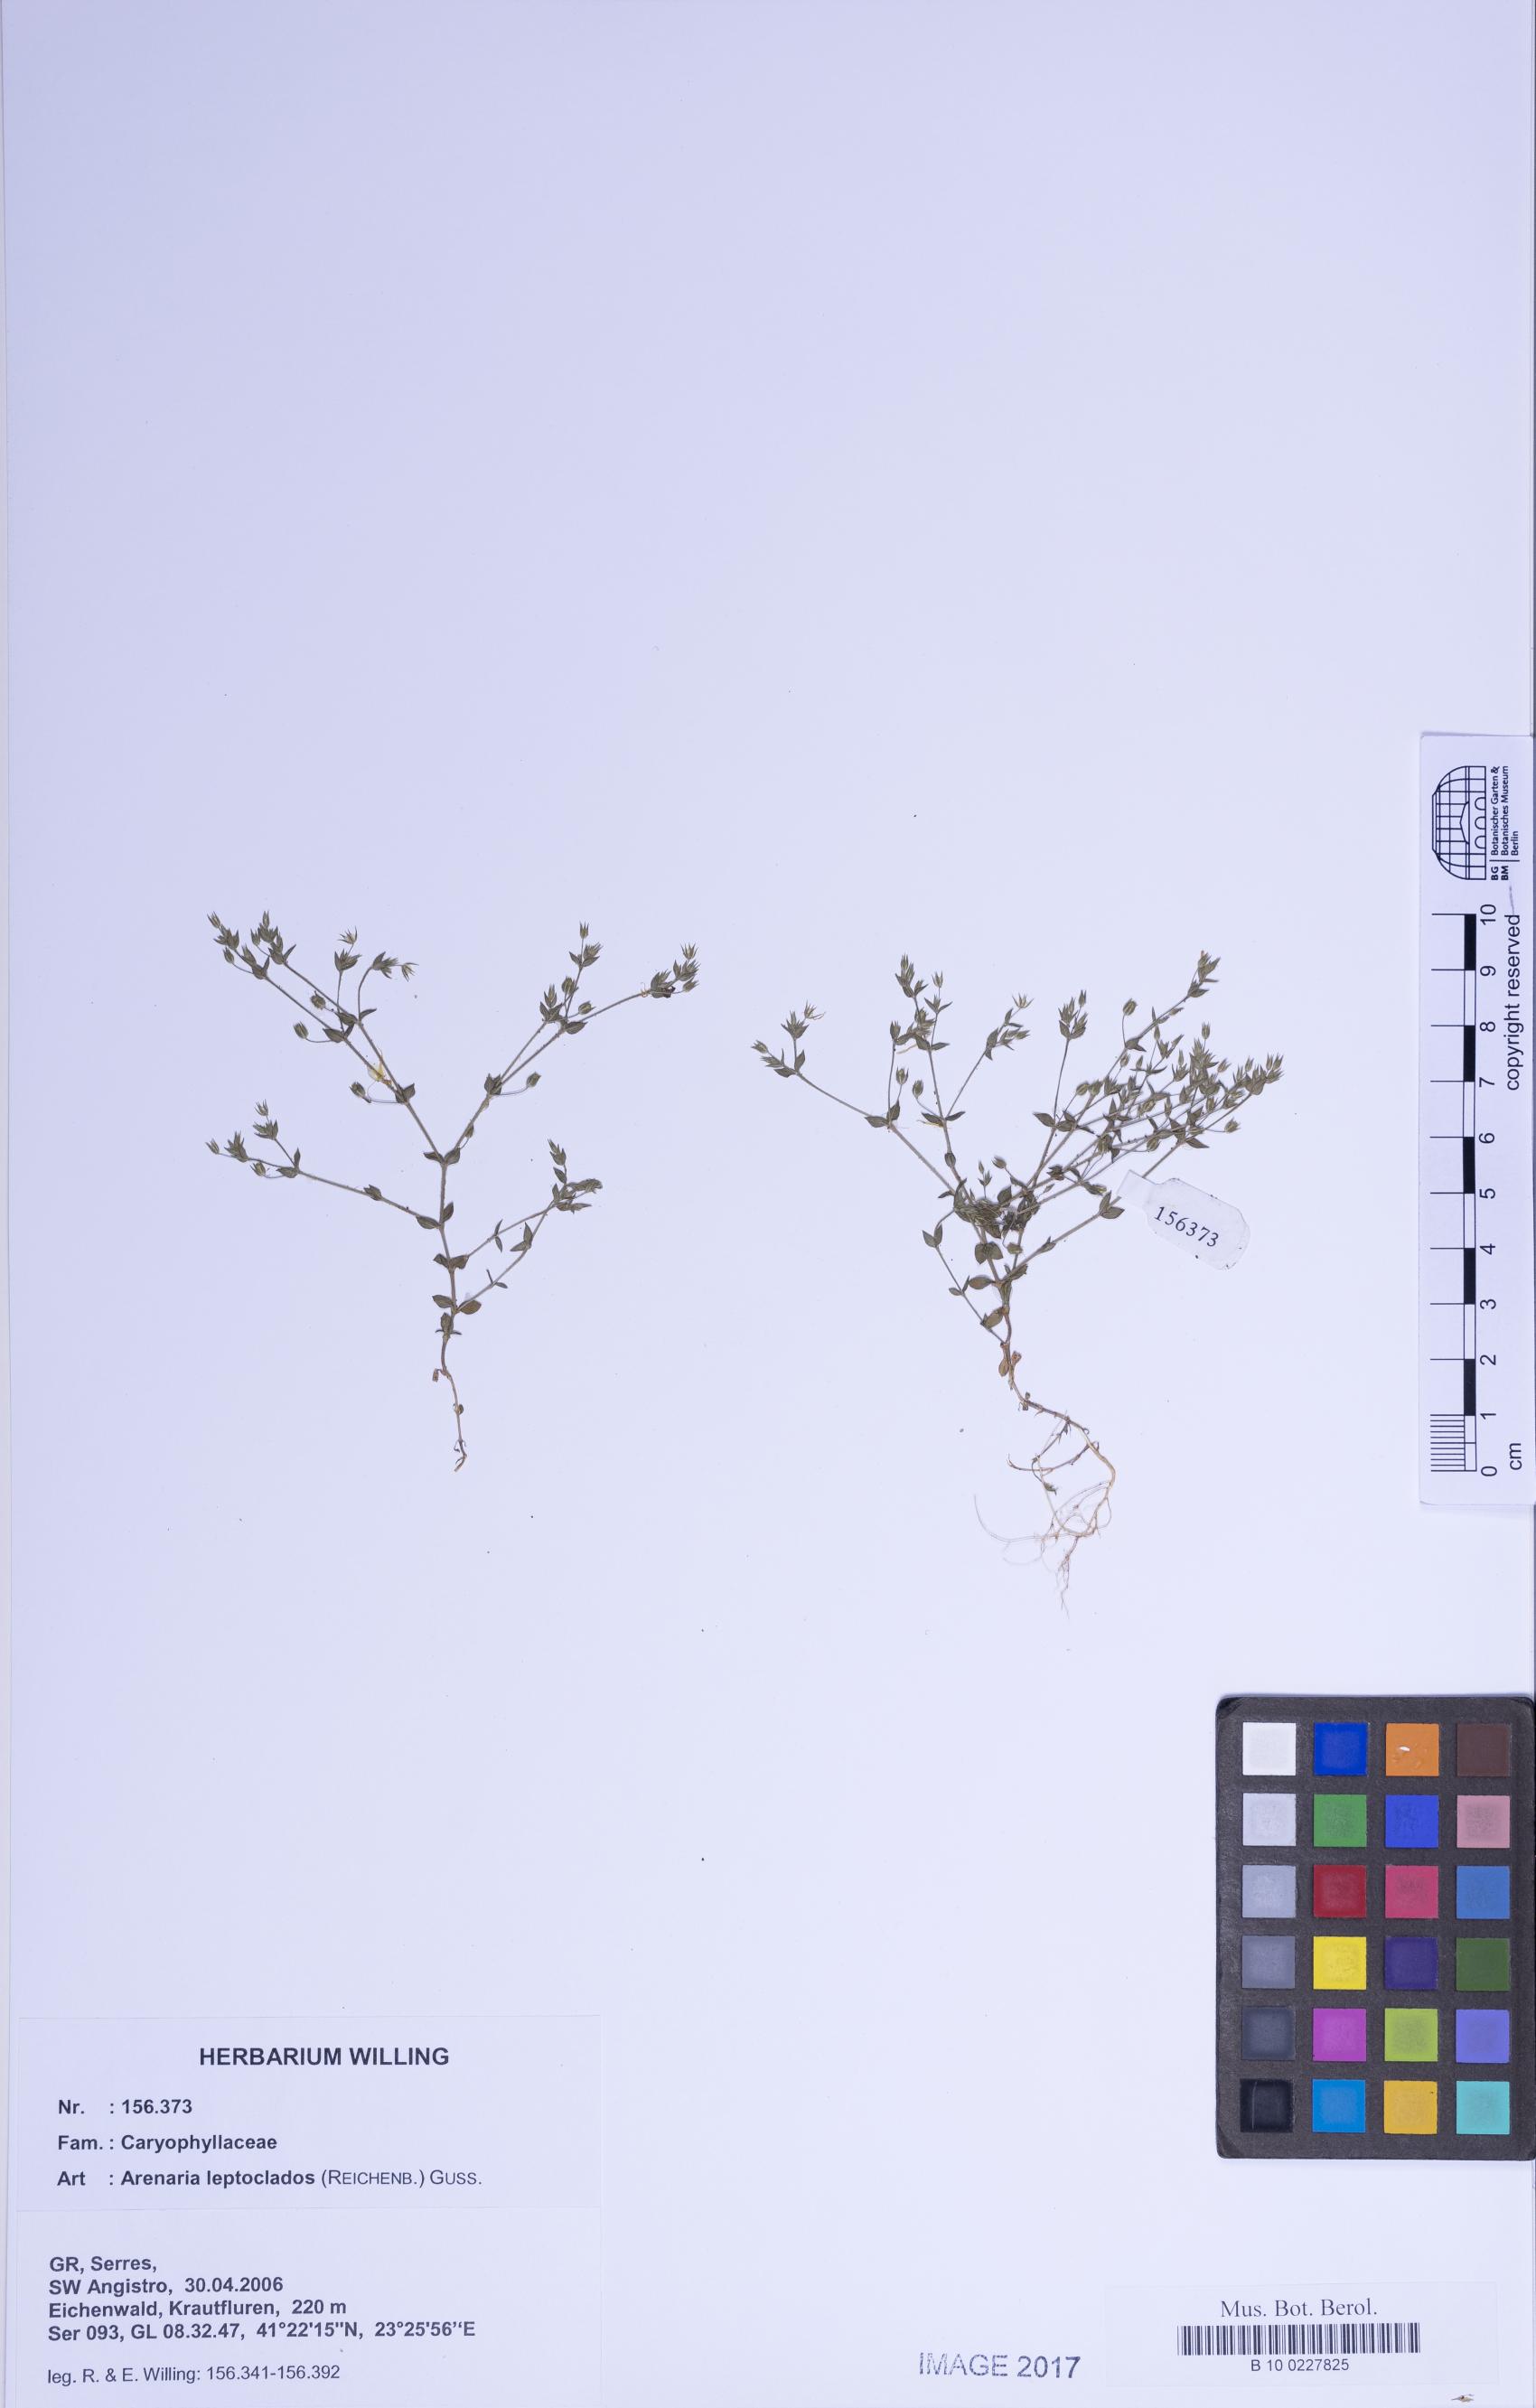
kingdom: Plantae
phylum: Tracheophyta
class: Magnoliopsida
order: Caryophyllales
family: Caryophyllaceae
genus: Arenaria
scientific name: Arenaria leptoclados
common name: Thyme-leaved sandwort
